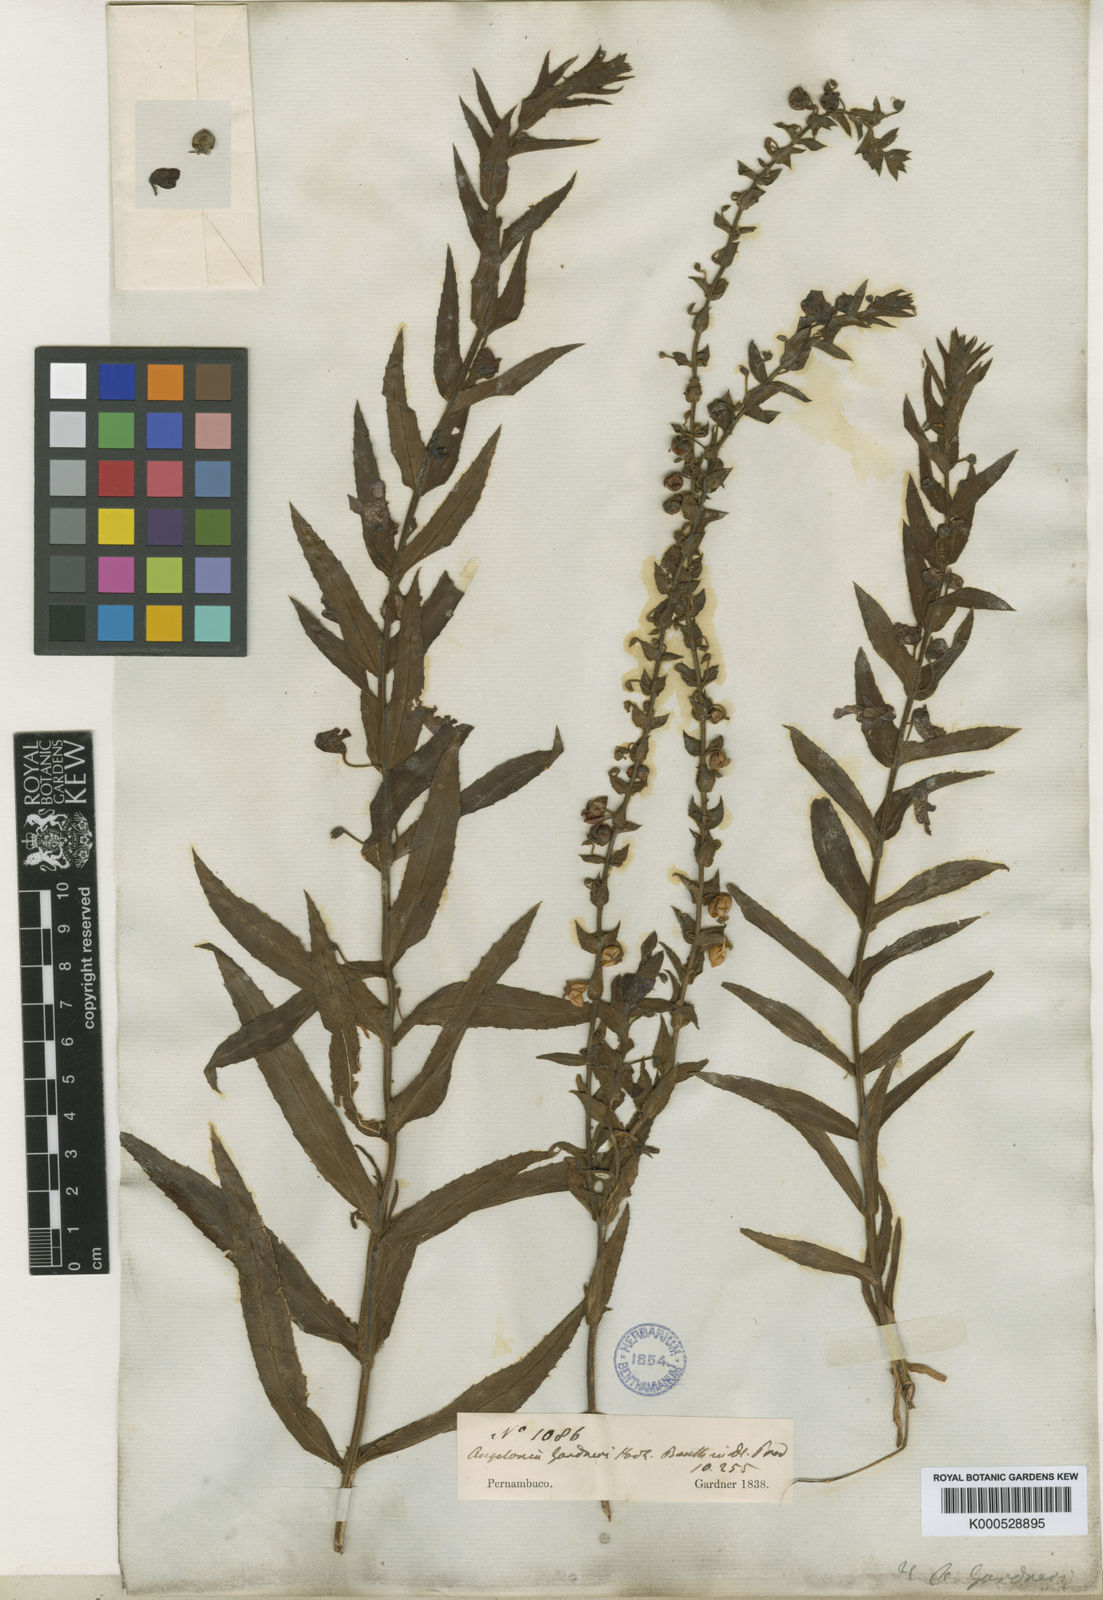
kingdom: Plantae
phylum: Tracheophyta
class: Magnoliopsida
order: Lamiales
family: Plantaginaceae
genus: Angelonia
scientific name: Angelonia salicariifolia
